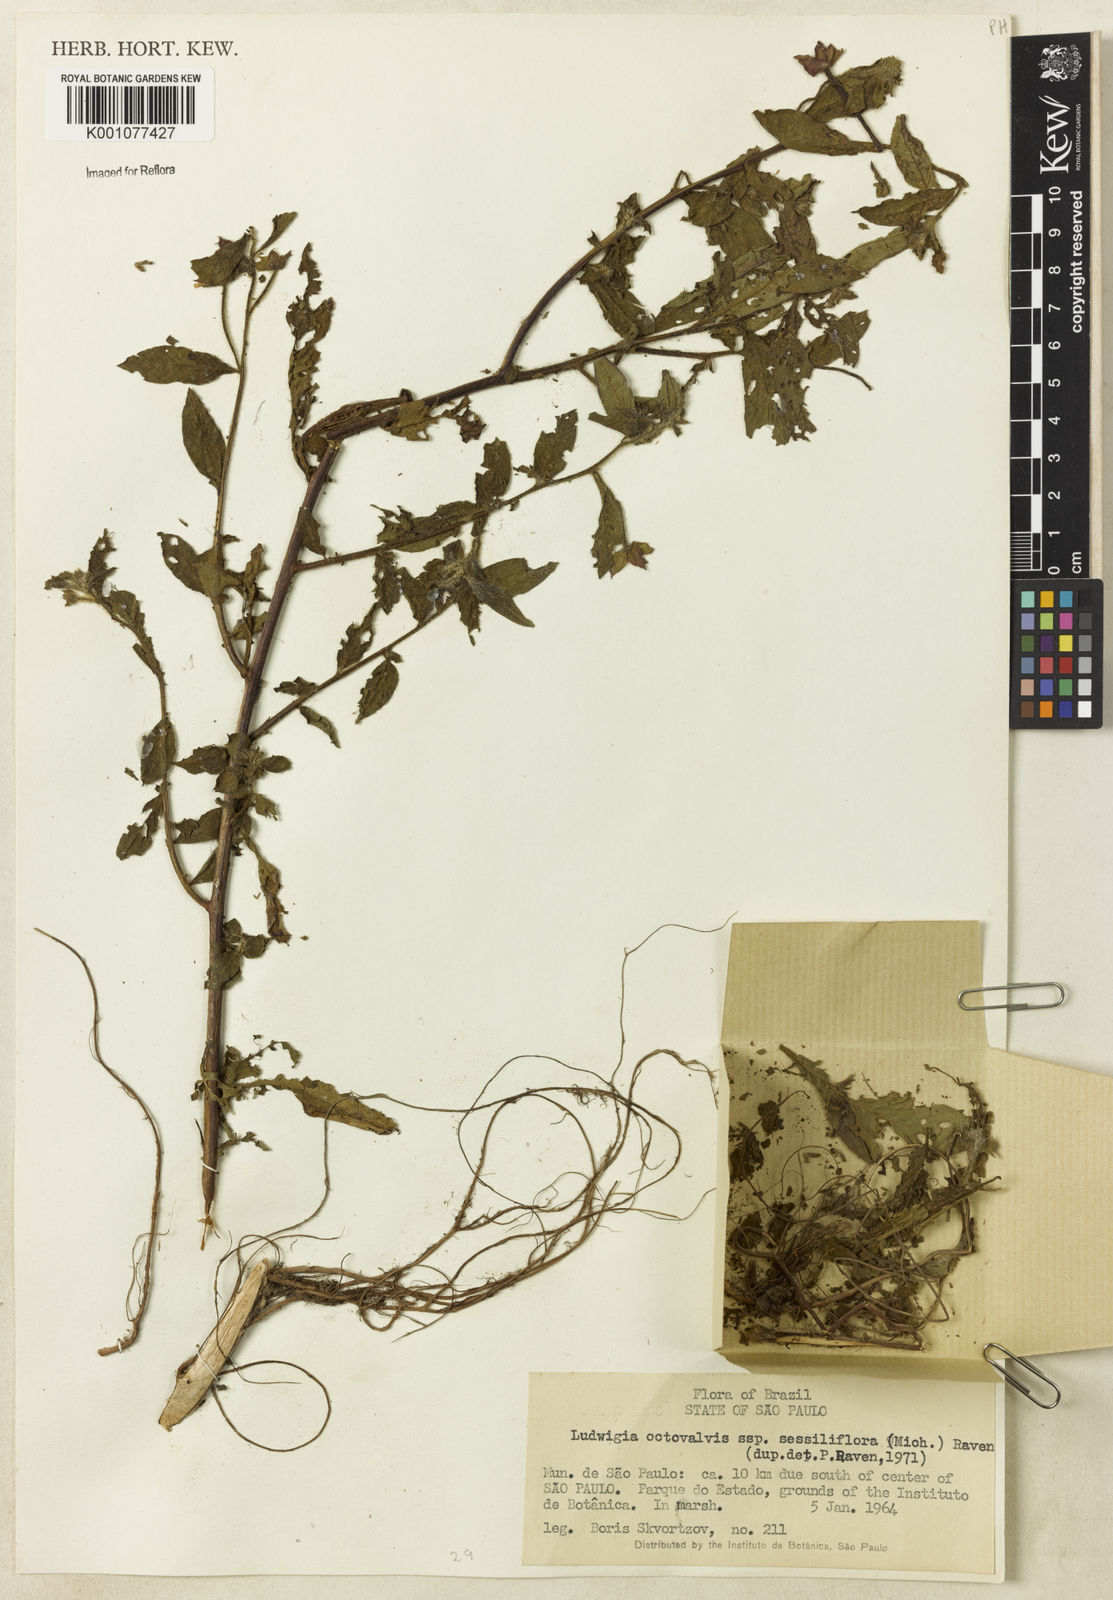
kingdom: Plantae
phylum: Tracheophyta
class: Magnoliopsida
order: Myrtales
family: Onagraceae
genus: Ludwigia
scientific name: Ludwigia octovalvis
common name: Water-primrose
